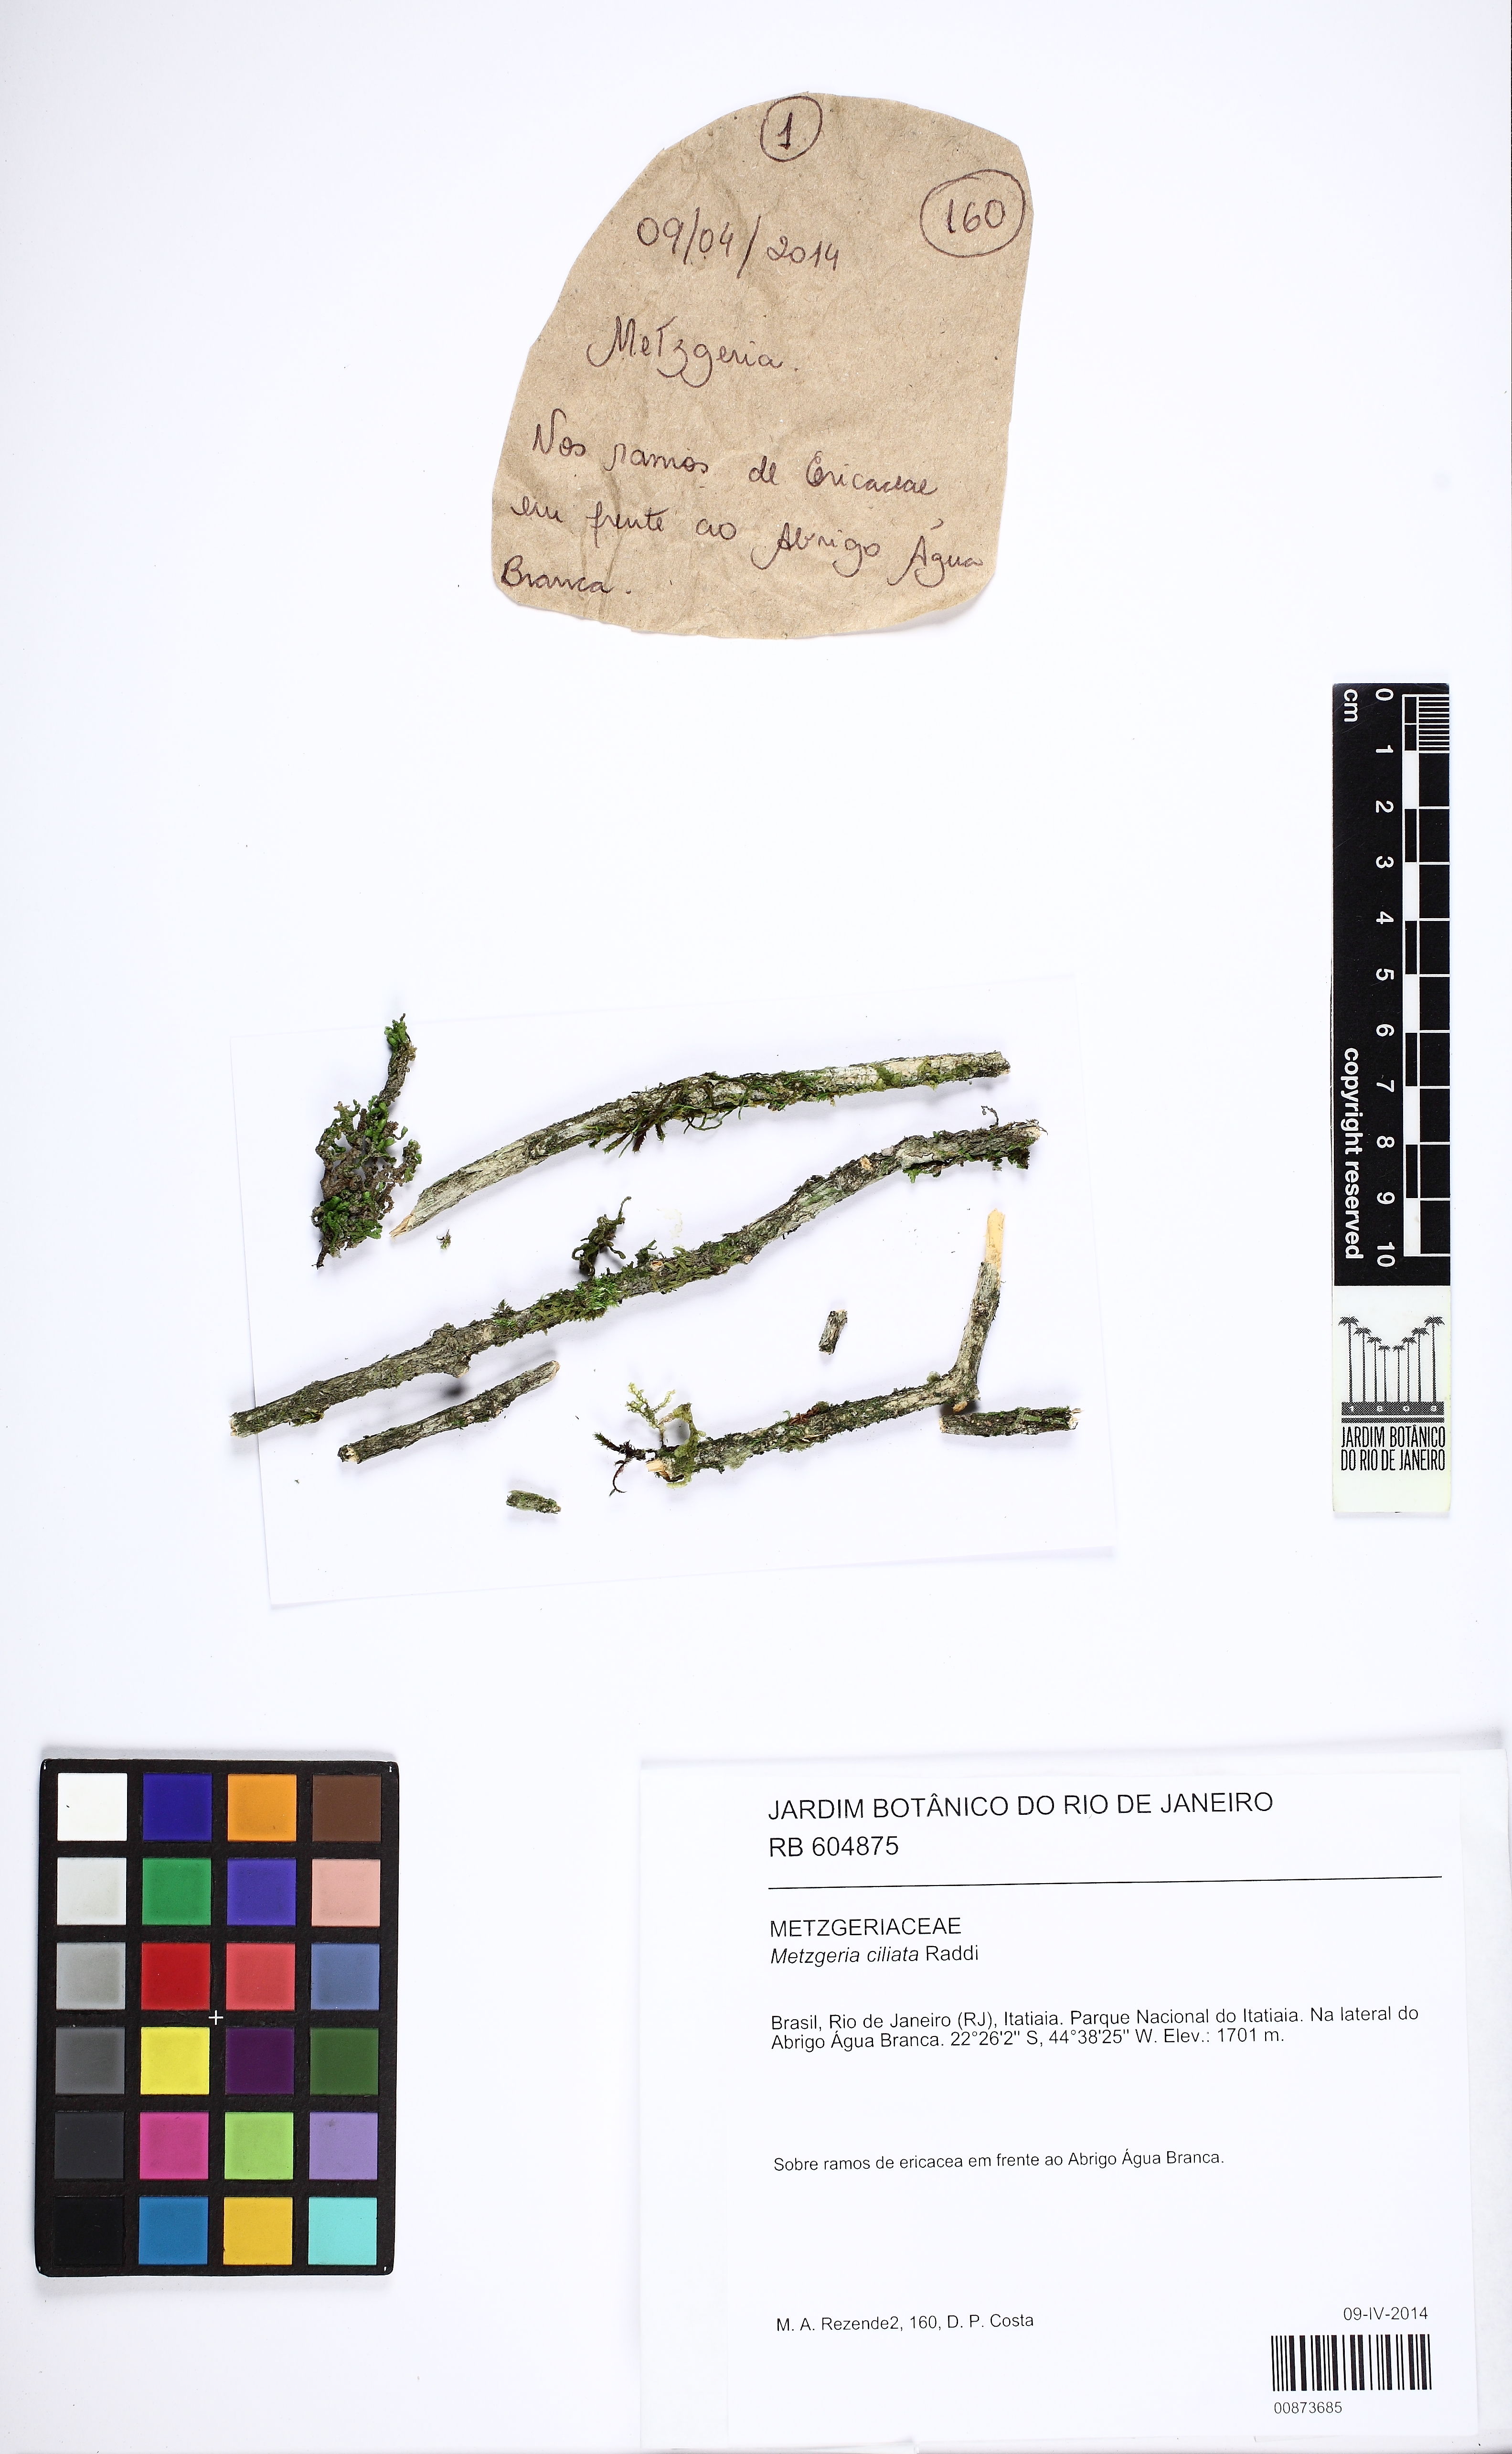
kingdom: Plantae
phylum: Marchantiophyta
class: Jungermanniopsida
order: Metzgeriales
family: Metzgeriaceae
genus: Metzgeria
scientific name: Metzgeria ciliata
